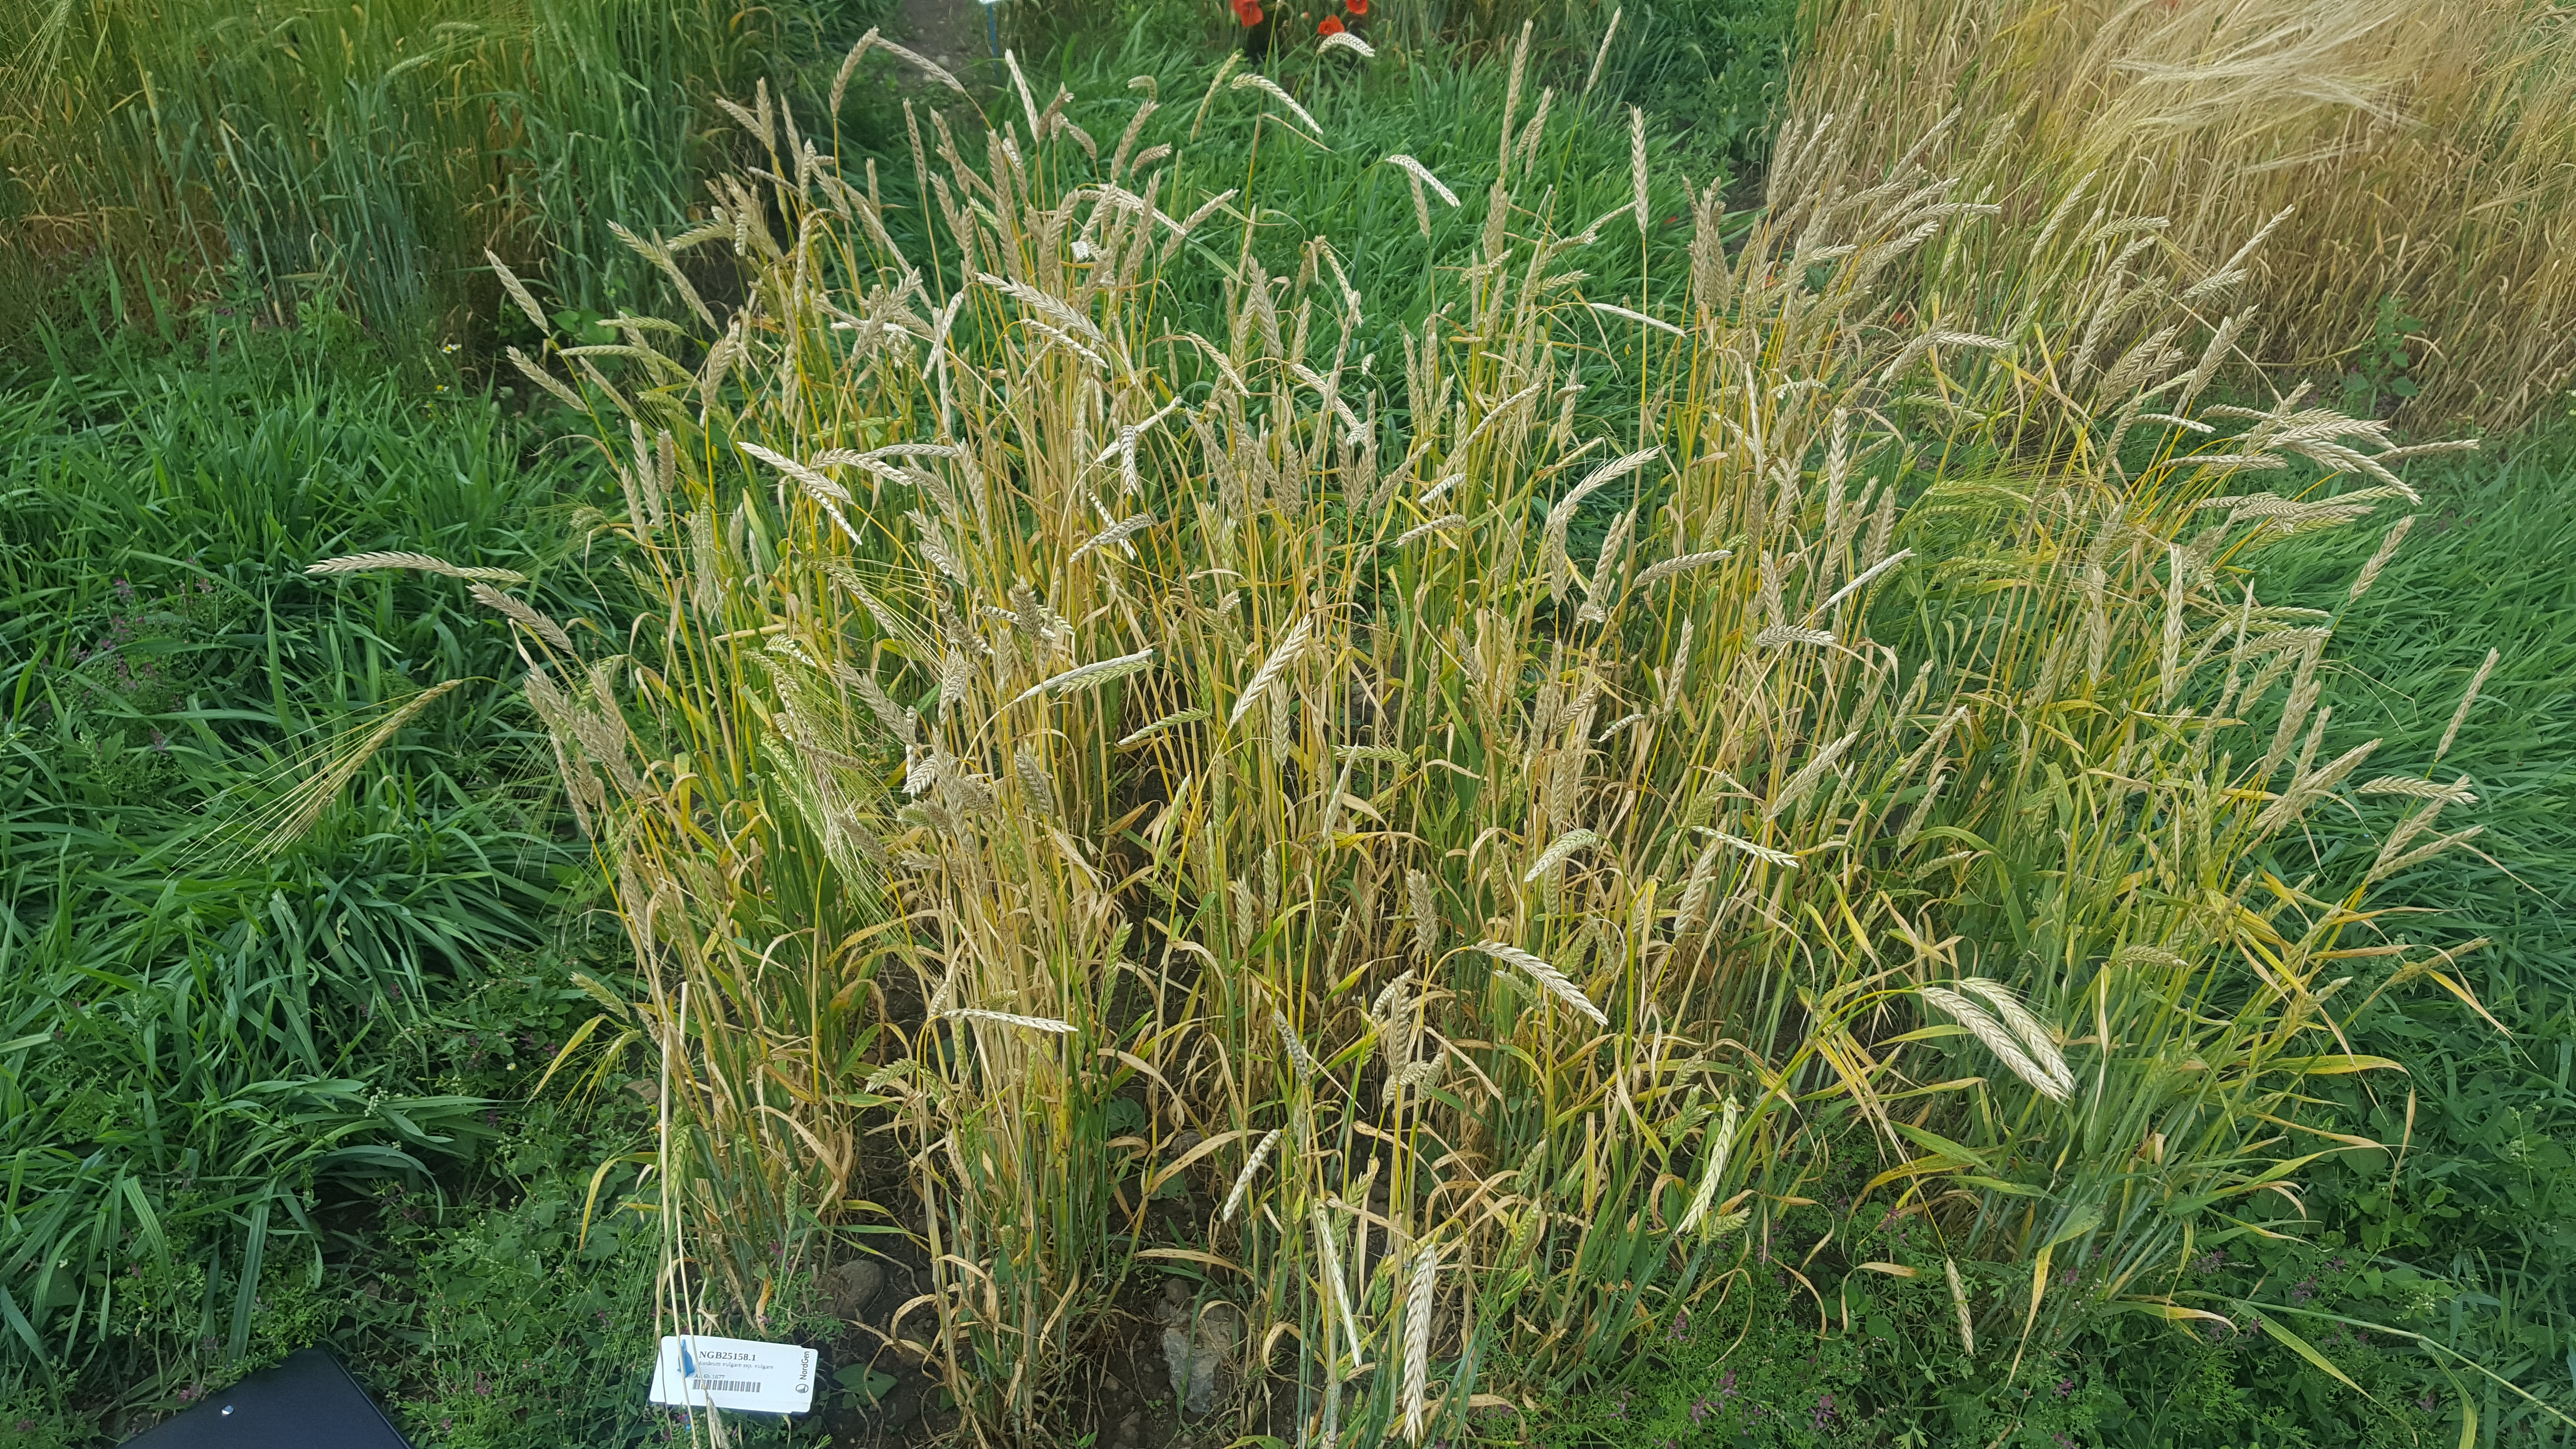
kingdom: Plantae
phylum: Tracheophyta
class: Liliopsida
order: Poales
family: Poaceae
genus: Hordeum
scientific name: Hordeum vulgare
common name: Common barley
